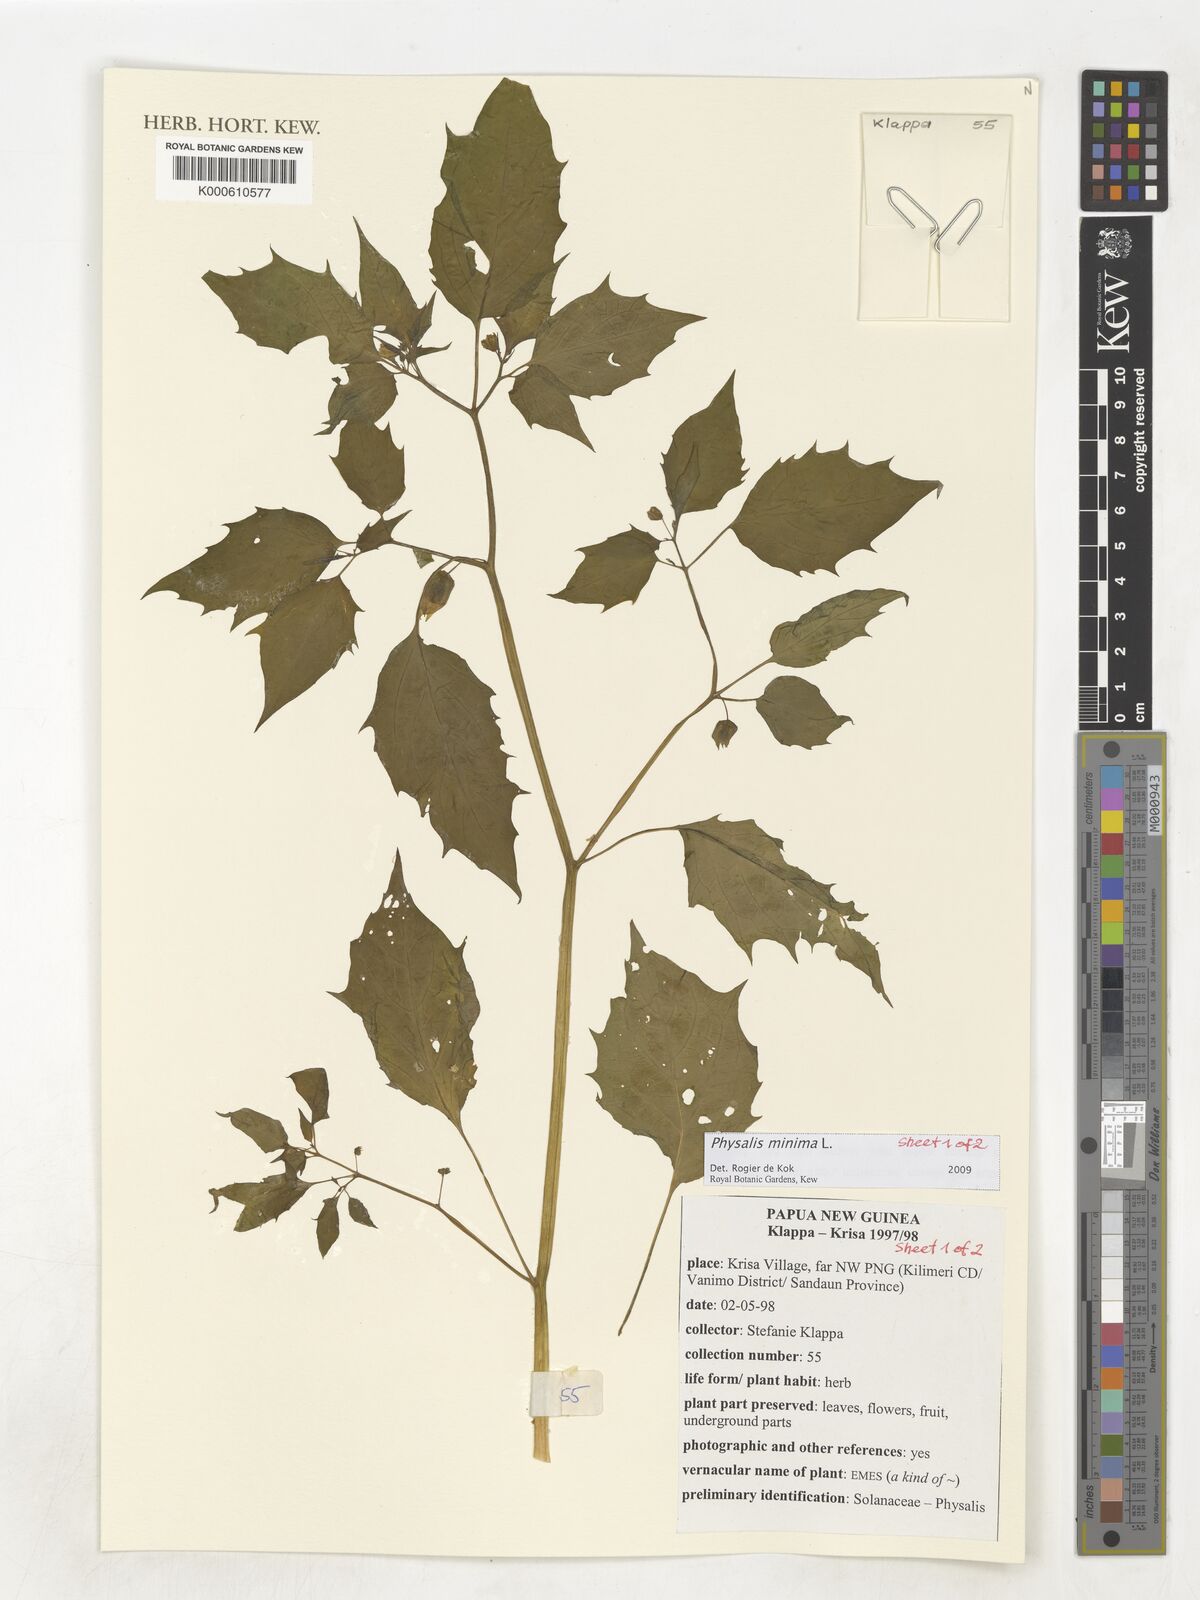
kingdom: Plantae
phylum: Tracheophyta
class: Magnoliopsida
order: Solanales
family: Solanaceae
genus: Physalis
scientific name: Physalis angulata
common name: Angular winter-cherry
